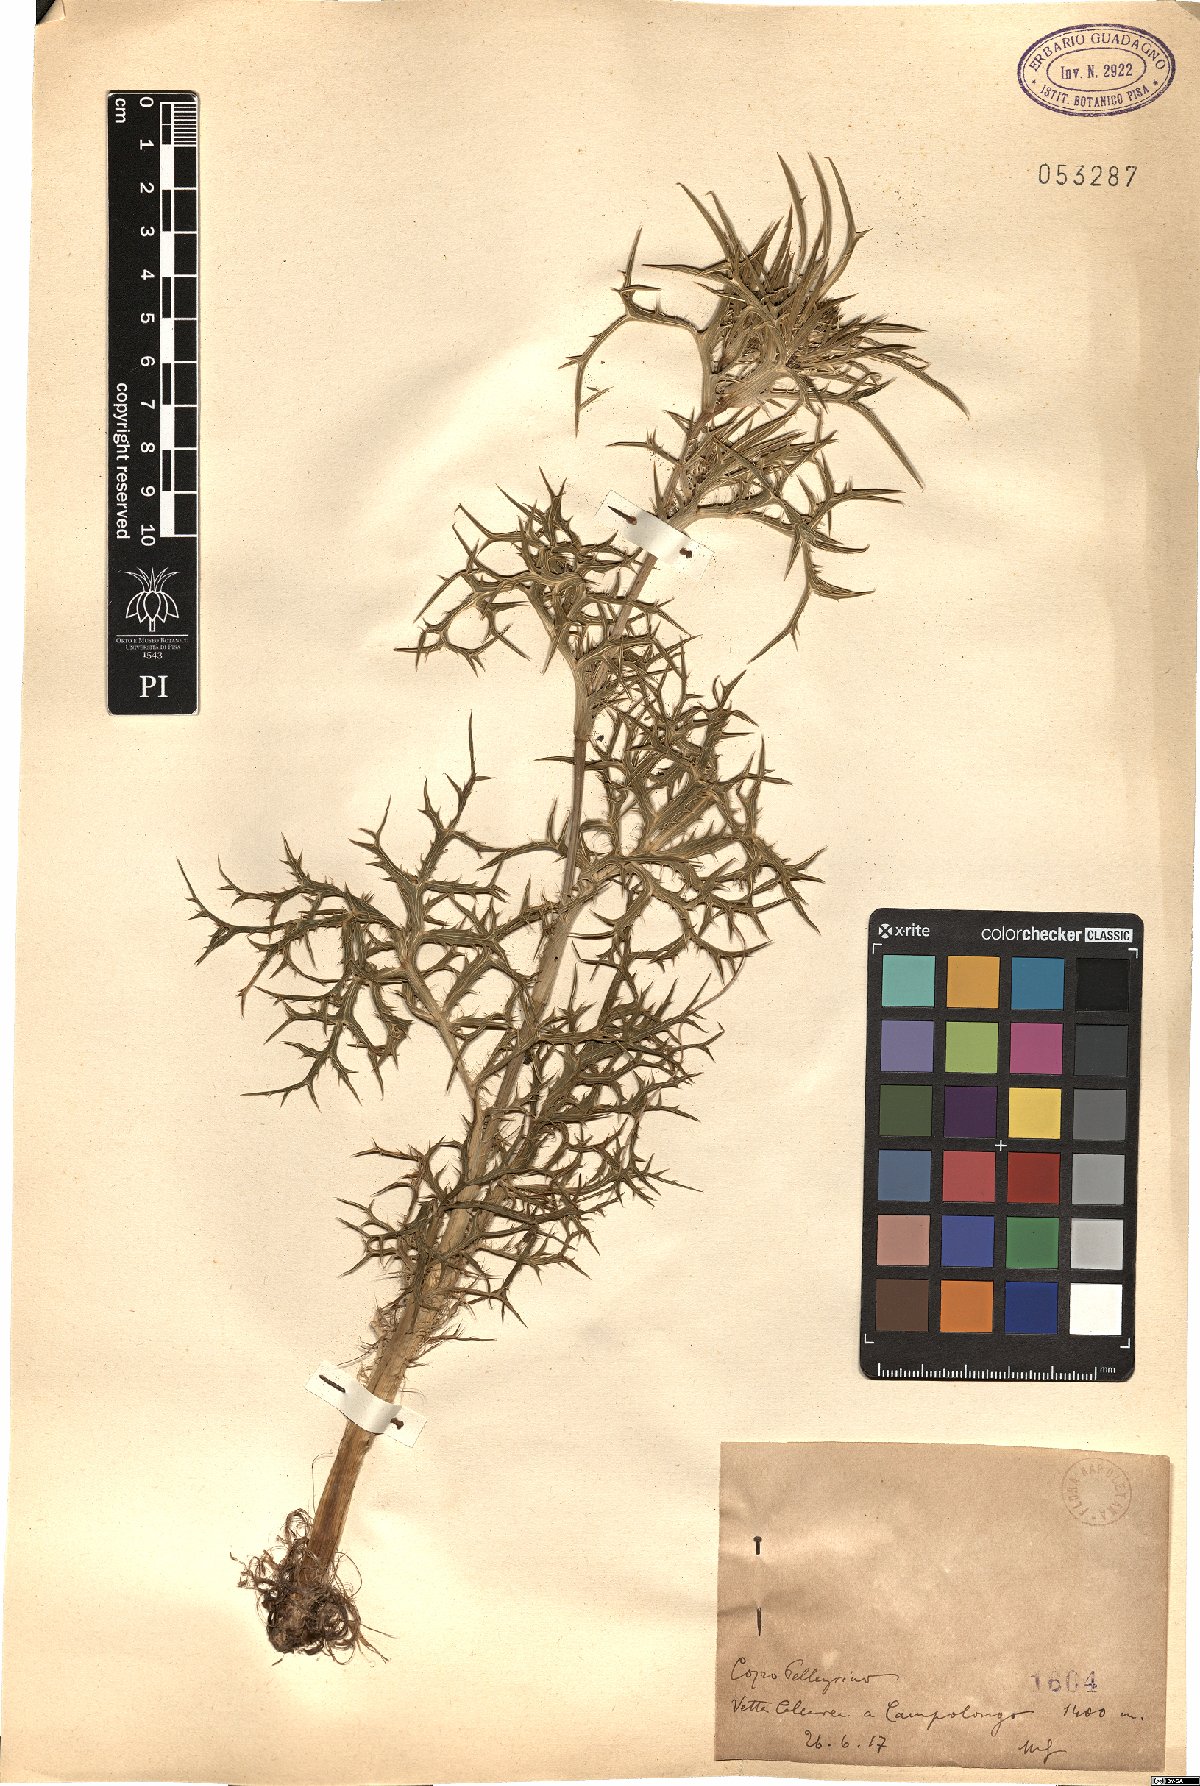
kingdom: Plantae
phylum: Tracheophyta
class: Magnoliopsida
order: Apiales
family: Apiaceae
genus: Eryngium
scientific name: Eryngium
